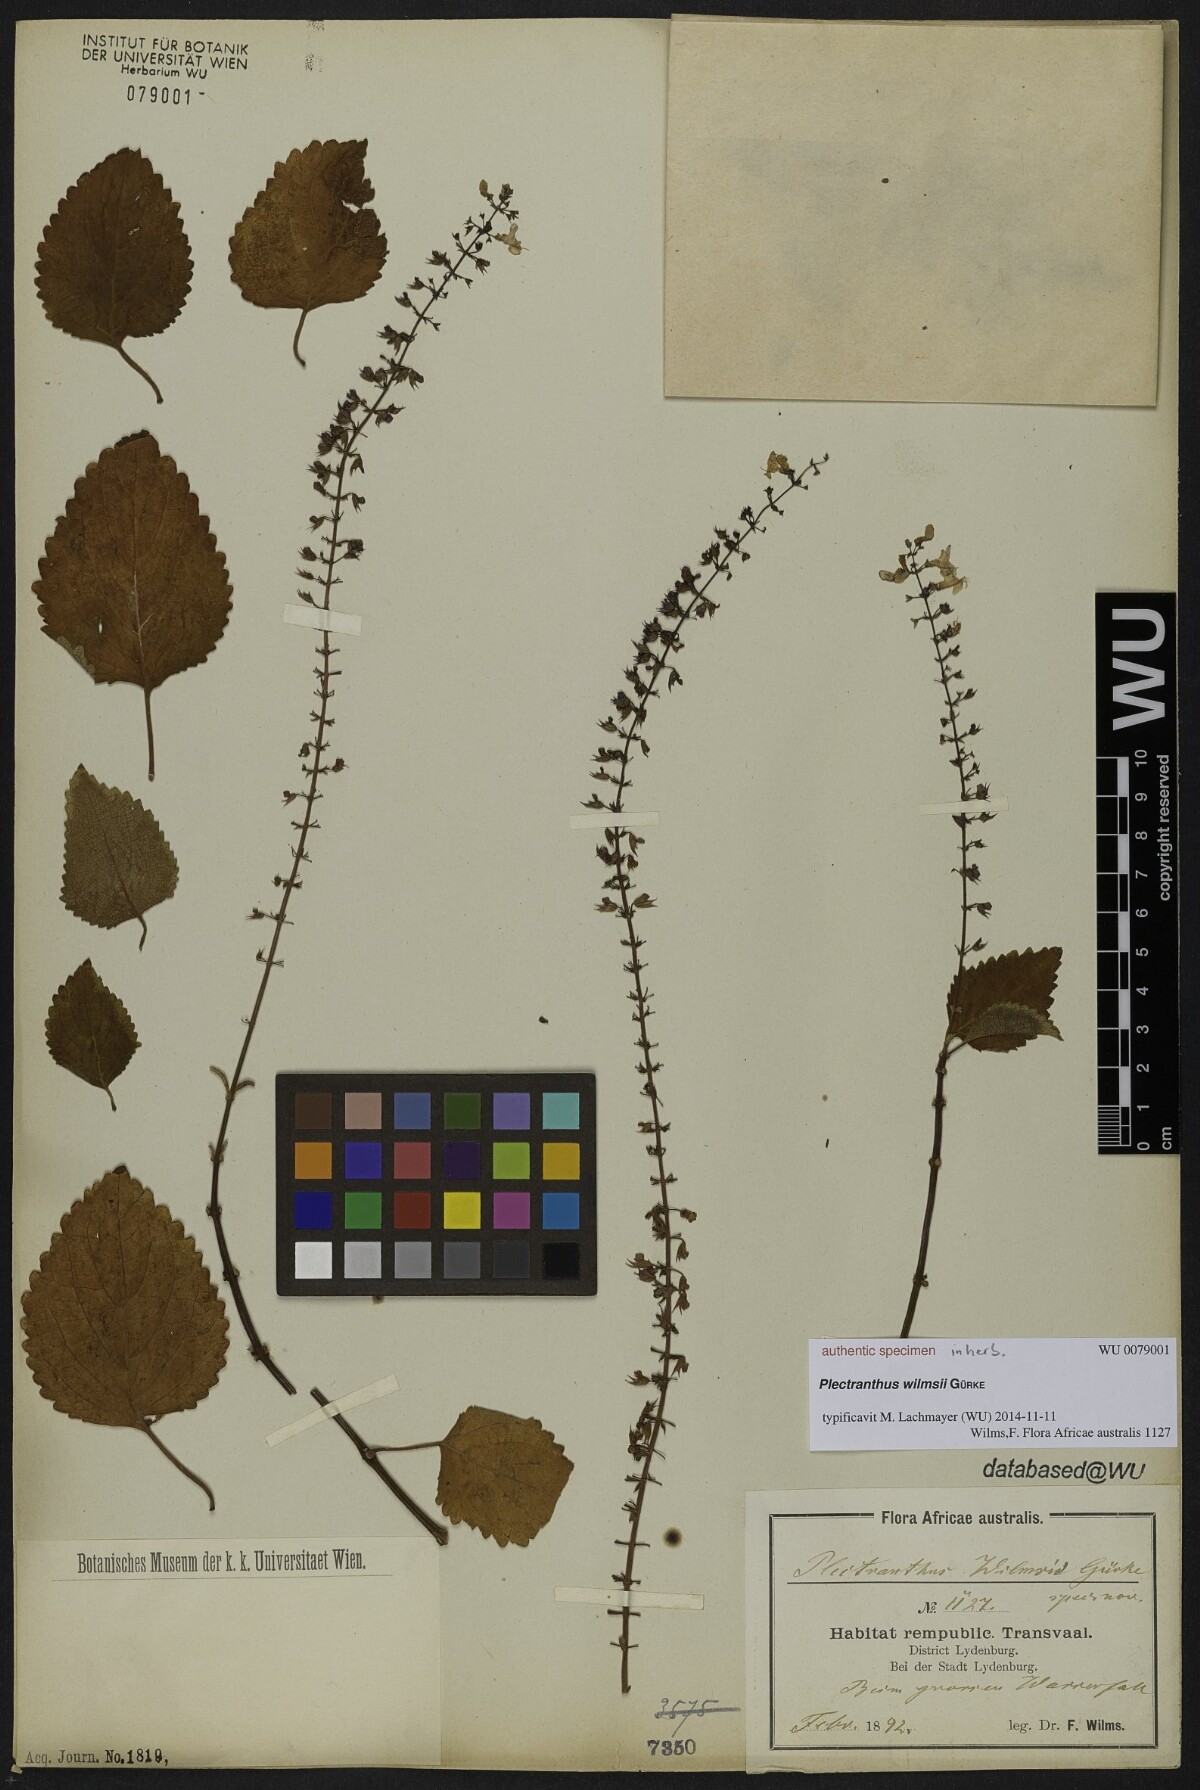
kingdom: Plantae
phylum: Tracheophyta
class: Magnoliopsida
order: Lamiales
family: Lamiaceae
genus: Plectranthus
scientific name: Plectranthus
